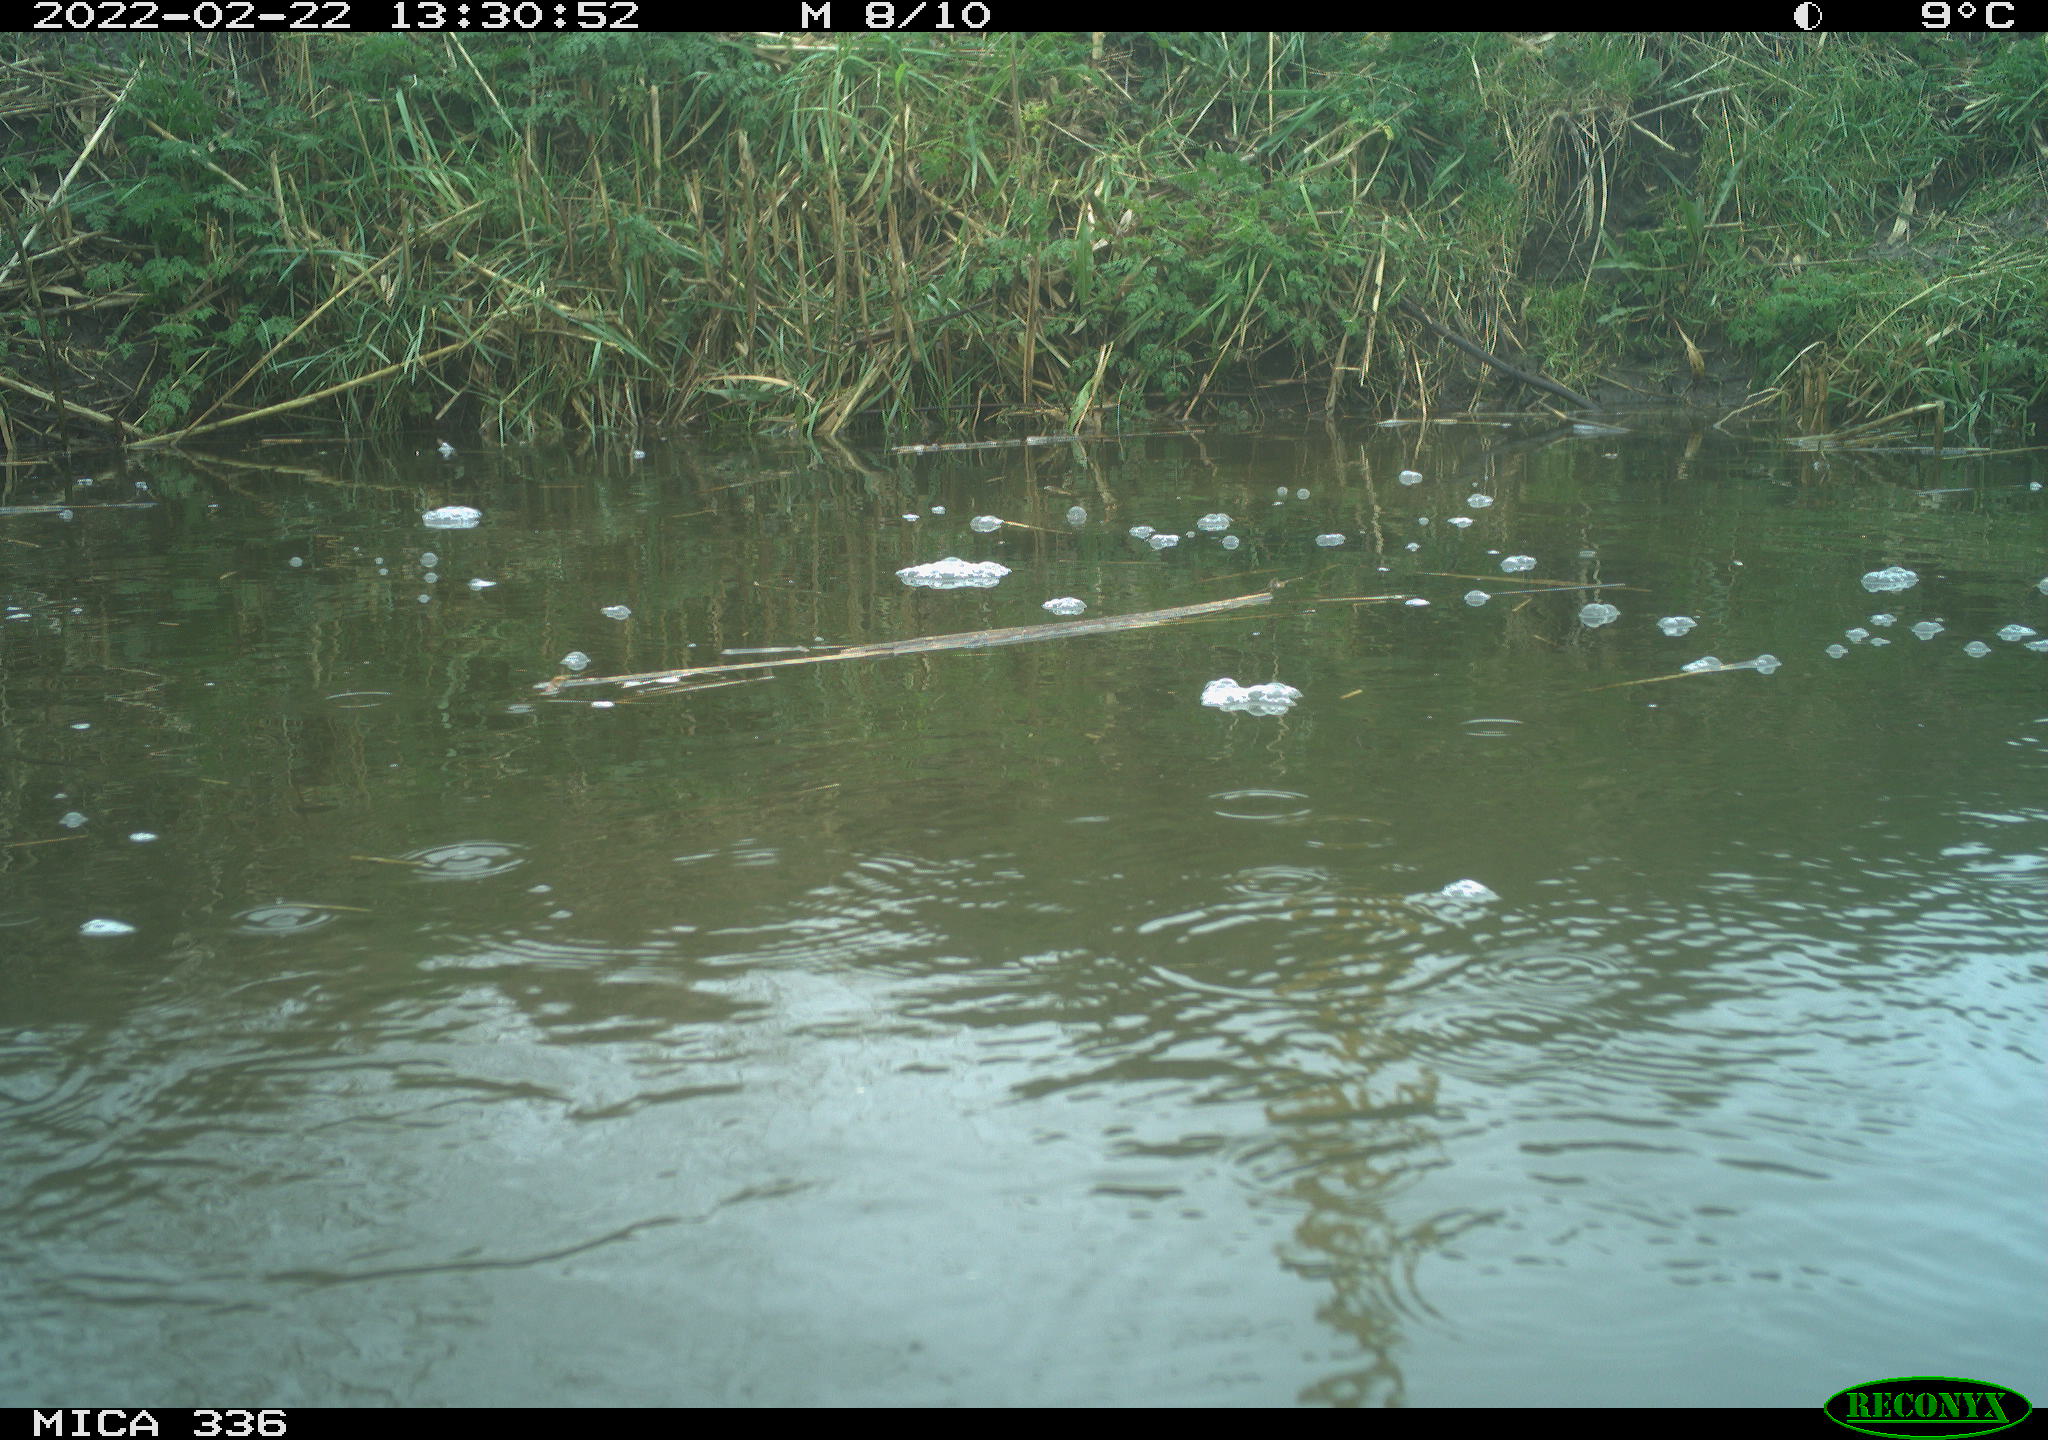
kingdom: Animalia
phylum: Chordata
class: Aves
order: Podicipediformes
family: Podicipedidae
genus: Podiceps
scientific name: Podiceps cristatus
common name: Great crested grebe
